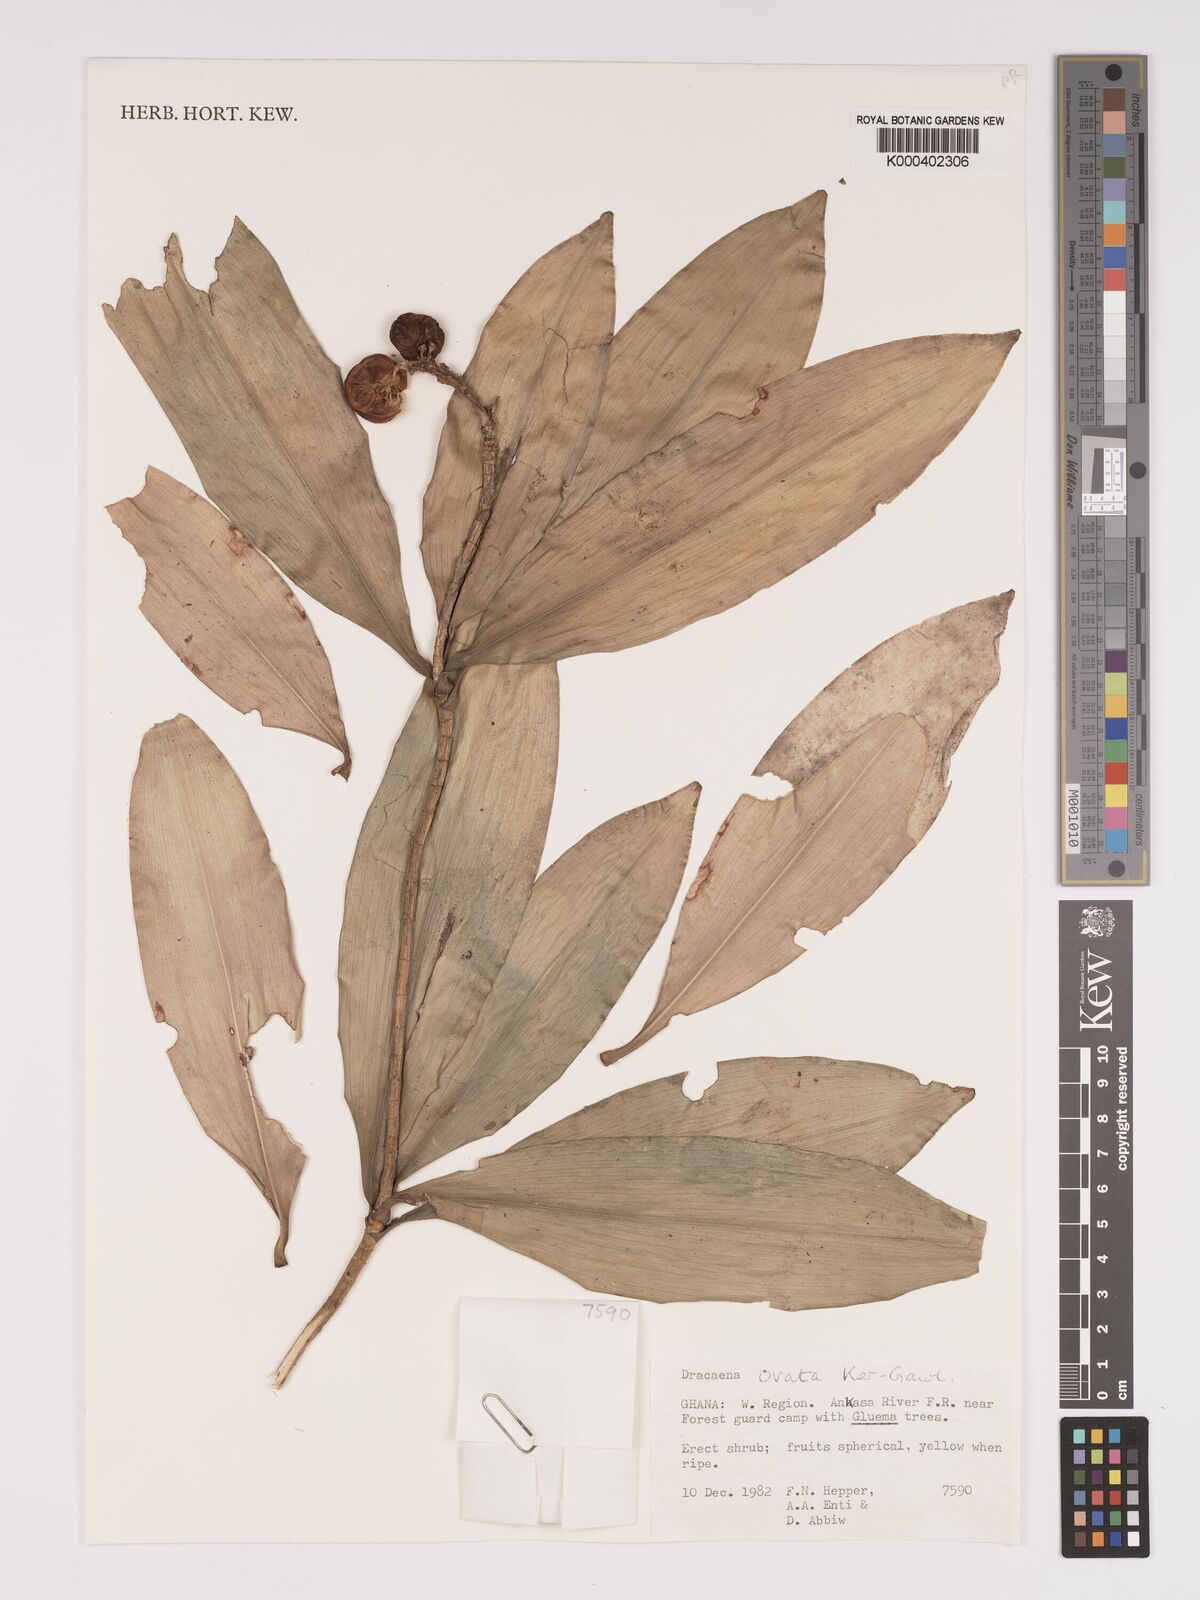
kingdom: Plantae
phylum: Tracheophyta
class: Liliopsida
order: Asparagales
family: Asparagaceae
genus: Dracaena
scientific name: Dracaena ovata
